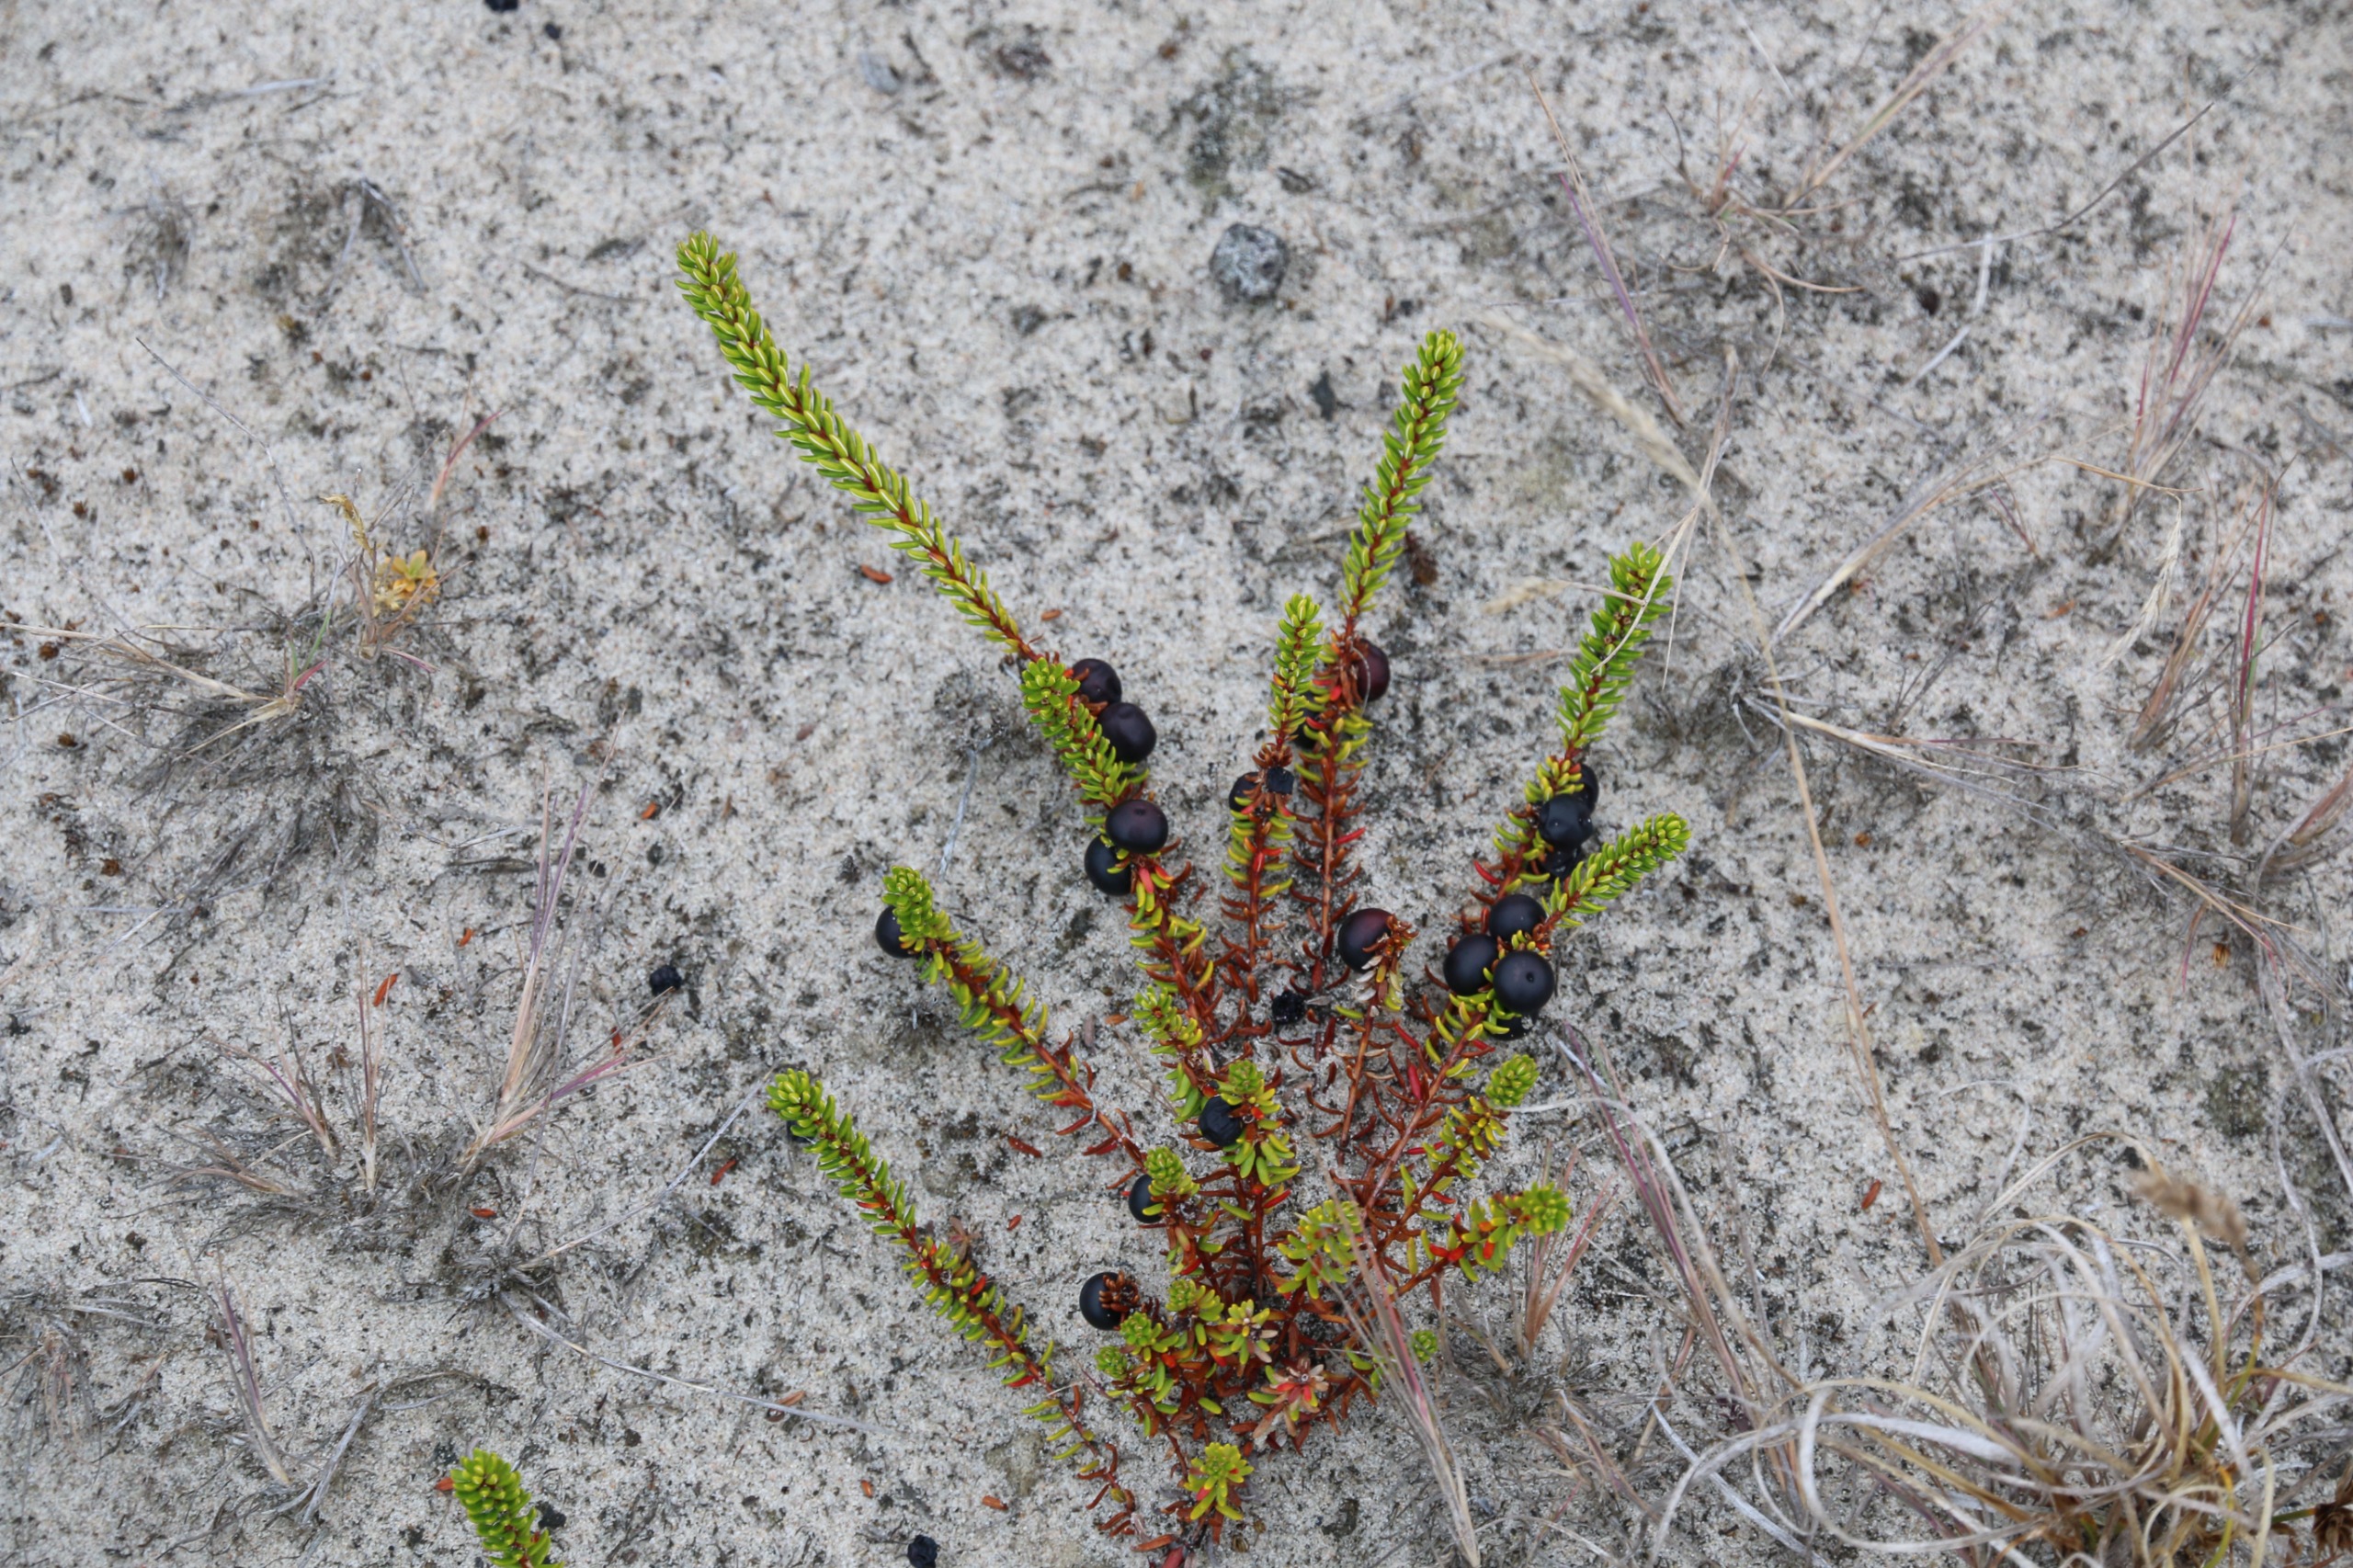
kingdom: Plantae
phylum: Tracheophyta
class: Magnoliopsida
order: Ericales
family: Ericaceae
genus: Empetrum
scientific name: Empetrum nigrum
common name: Revling
